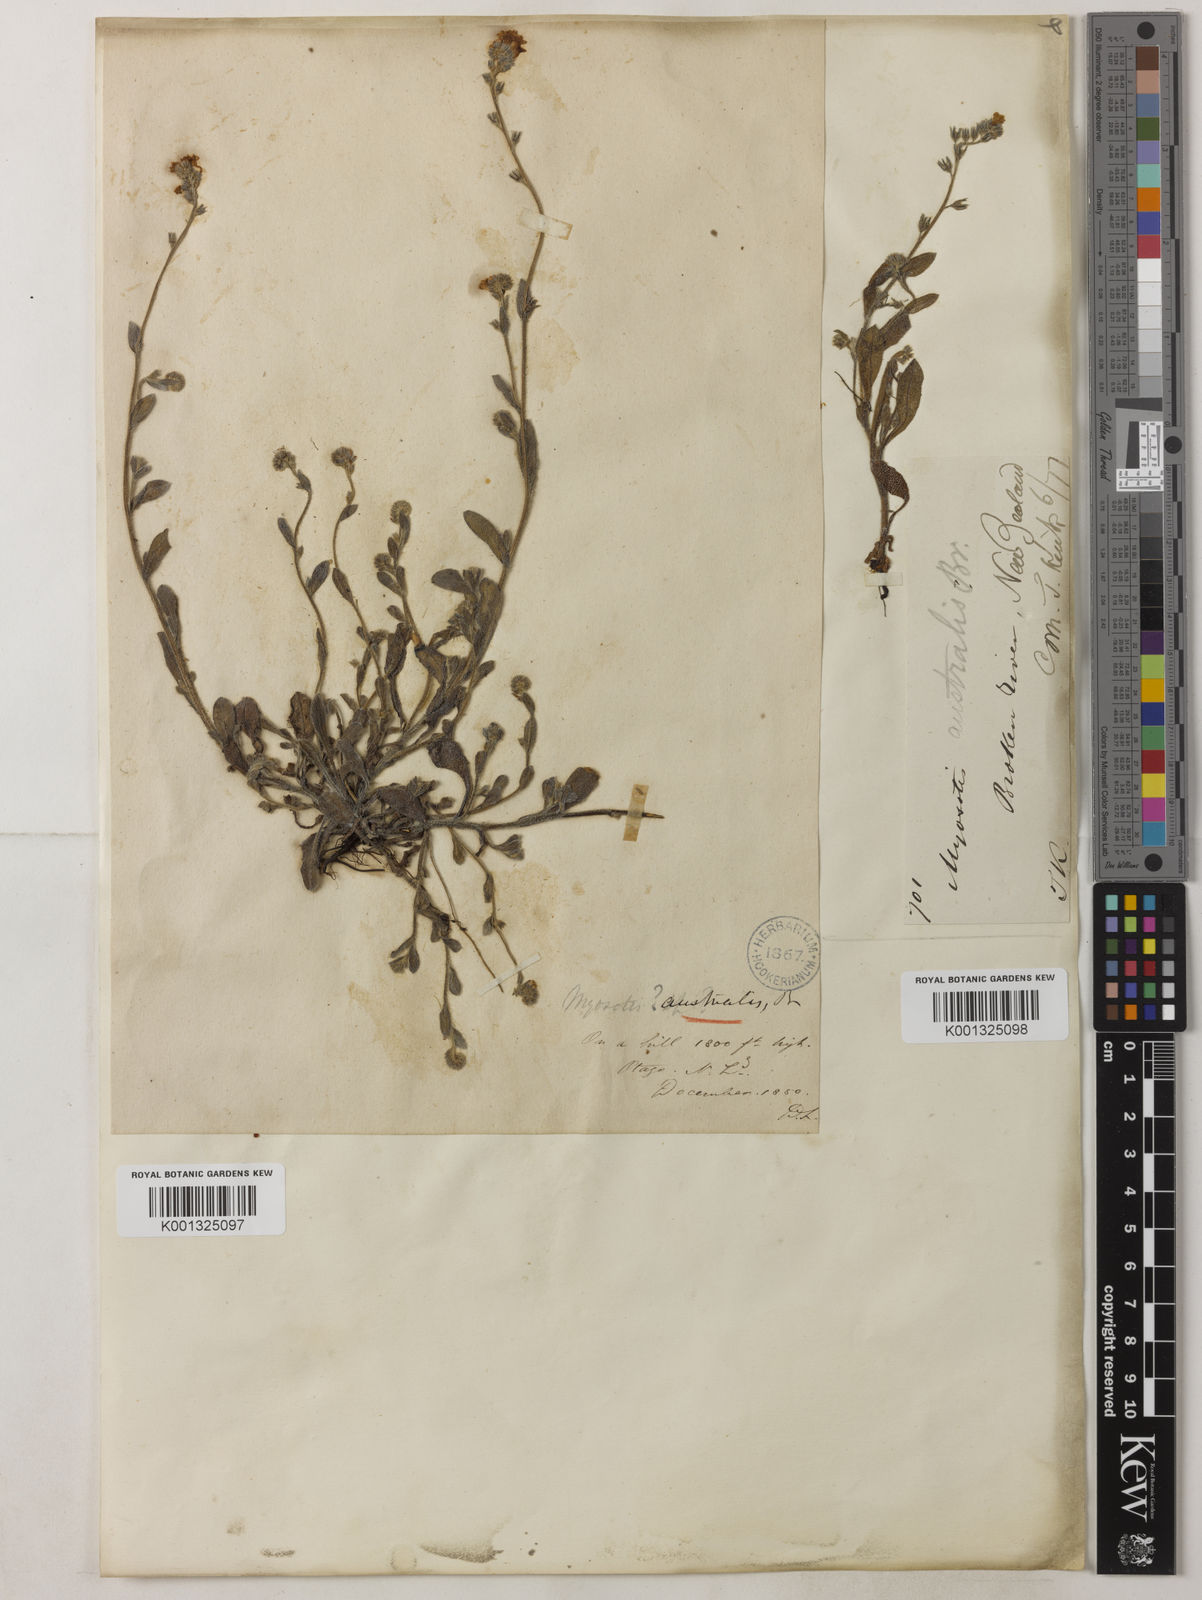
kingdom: Plantae
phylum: Tracheophyta
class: Magnoliopsida
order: Boraginales
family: Boraginaceae
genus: Myosotis
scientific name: Myosotis australis
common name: Australian forget-me-not
